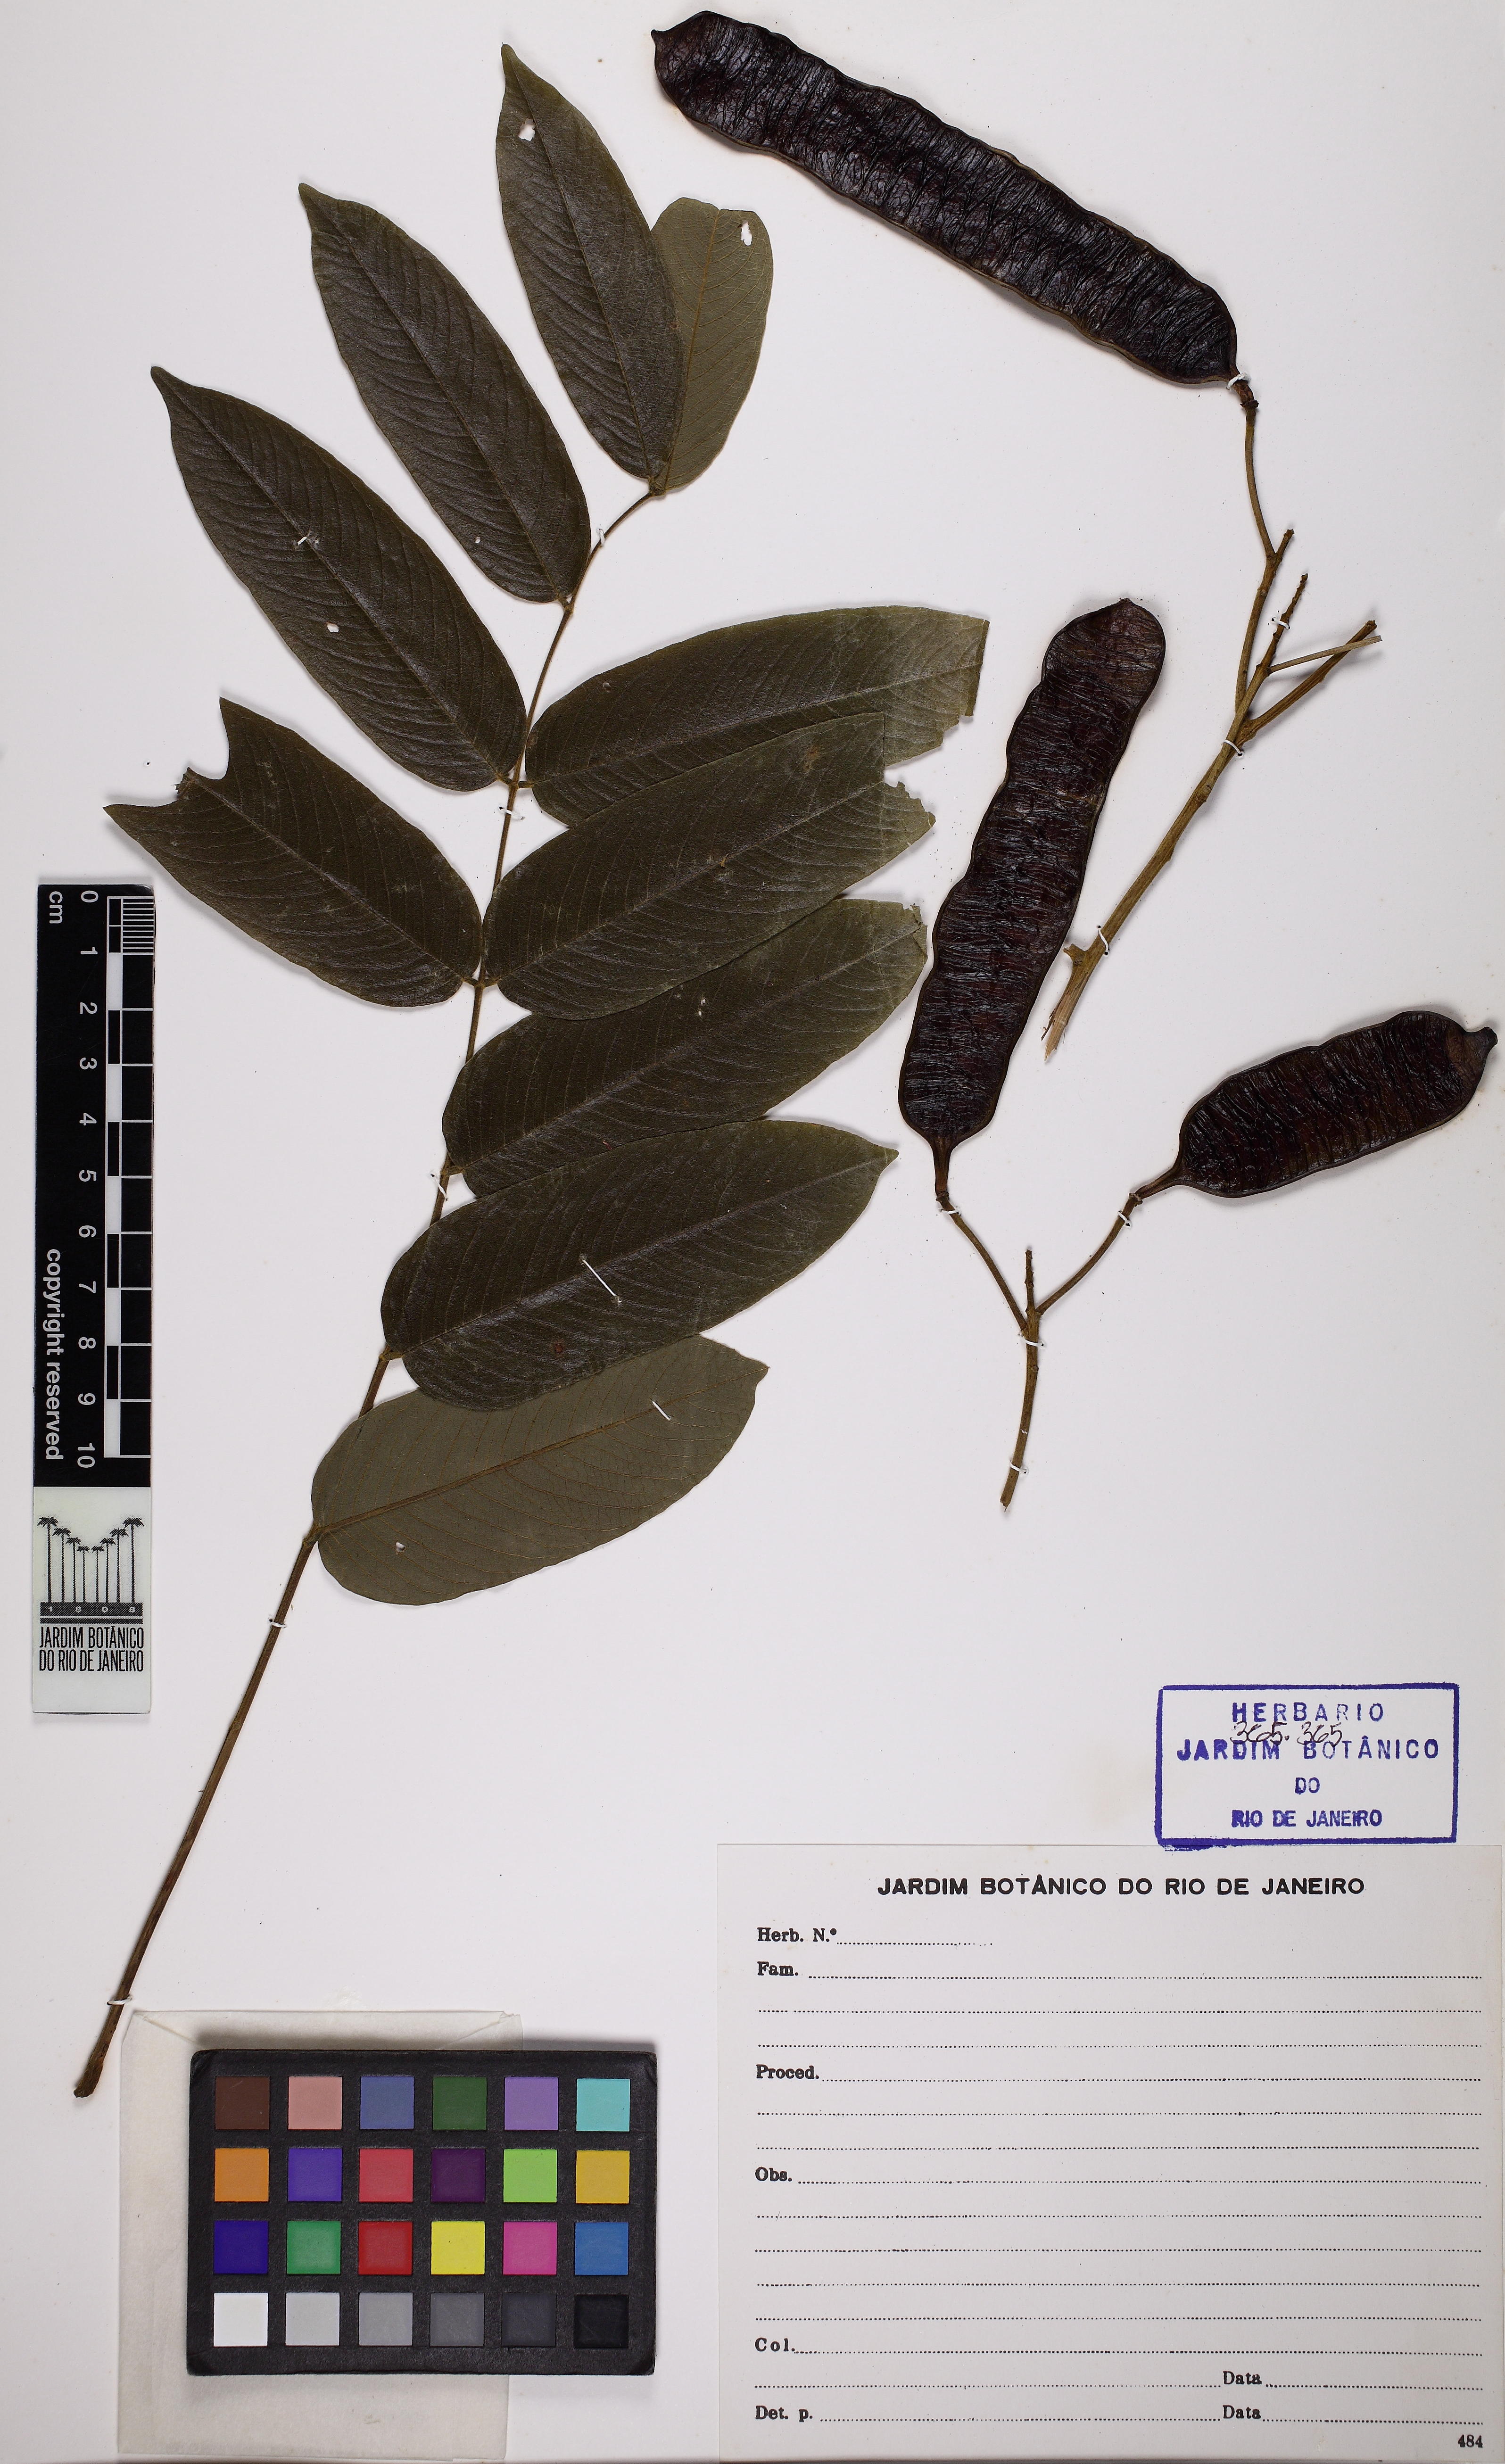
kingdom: Plantae
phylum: Tracheophyta
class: Magnoliopsida
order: Fabales
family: Fabaceae
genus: Senna
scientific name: Senna silvestris
